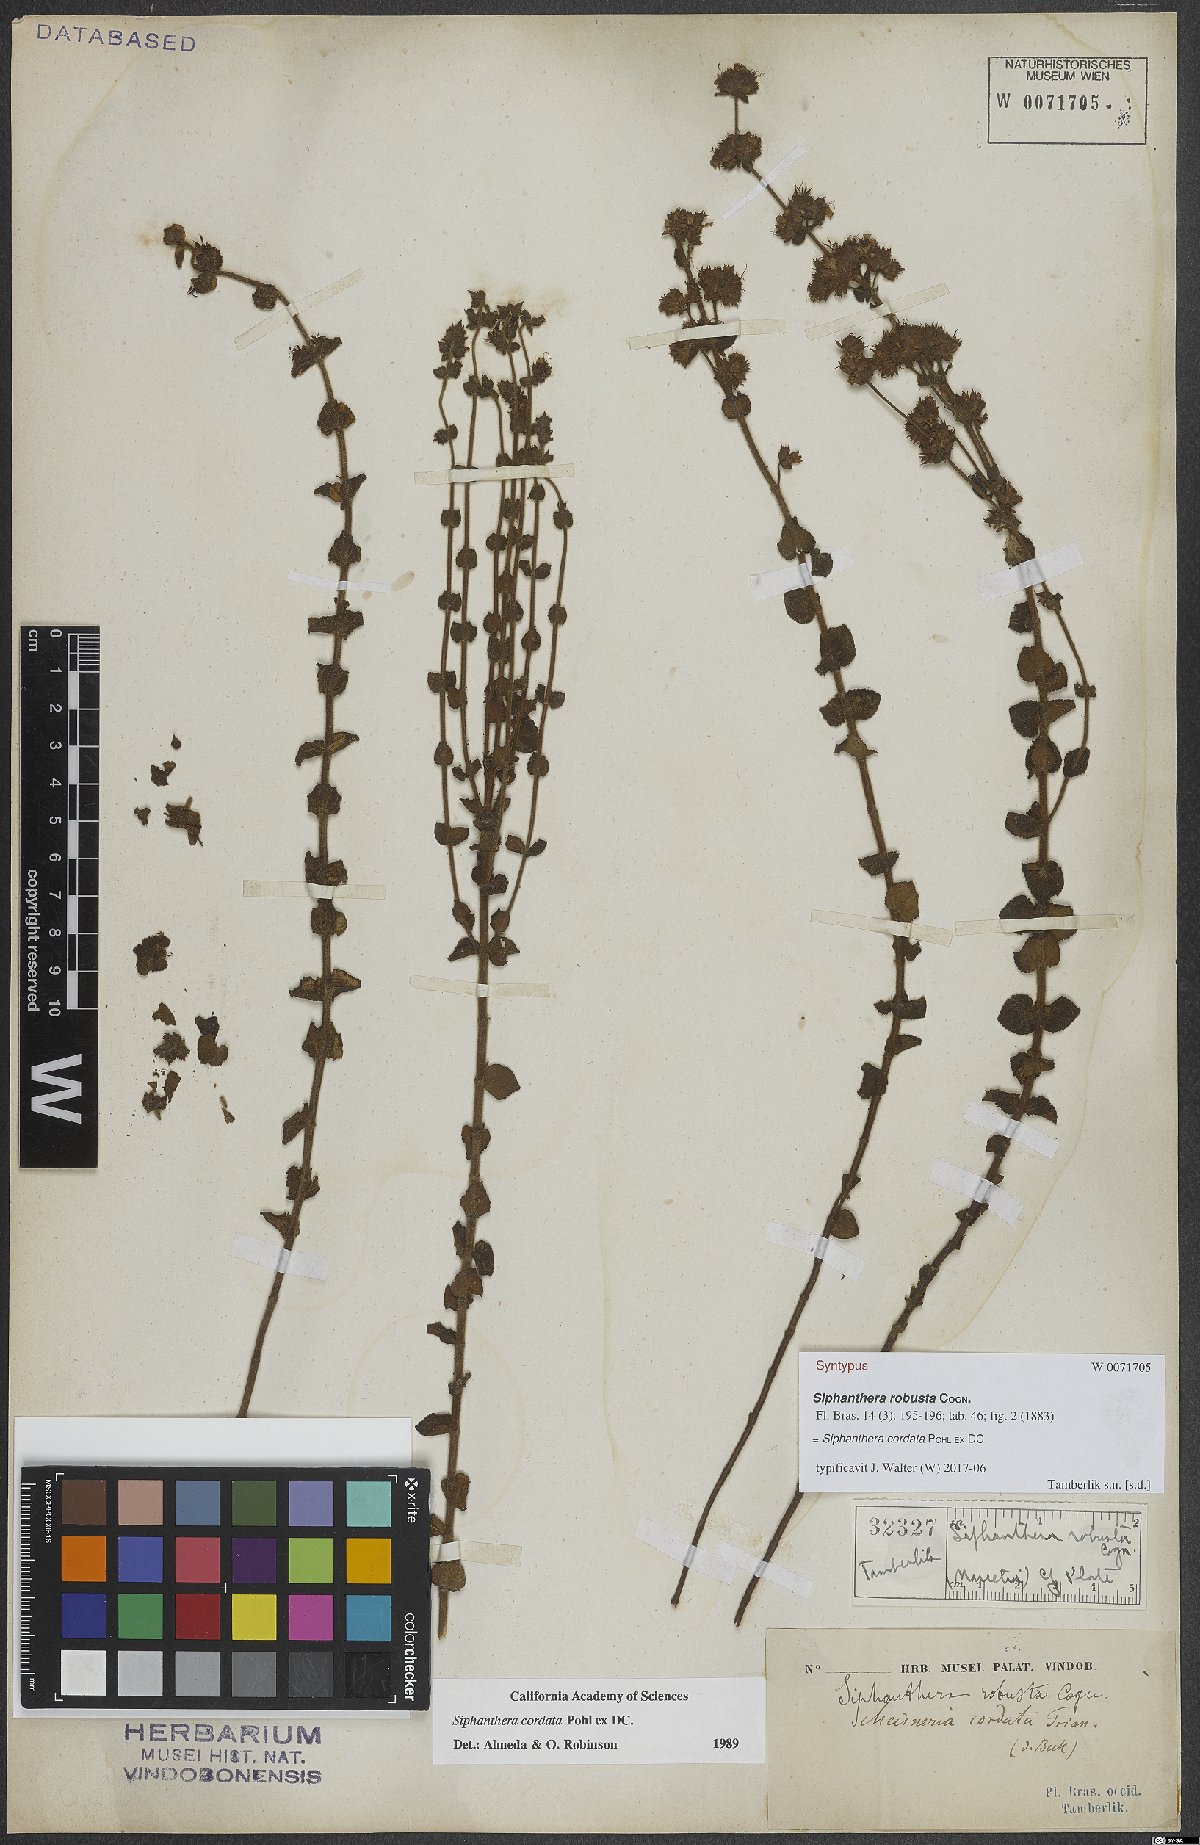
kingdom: Plantae
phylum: Tracheophyta
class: Magnoliopsida
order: Myrtales
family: Melastomataceae
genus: Siphanthera
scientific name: Siphanthera cordata
